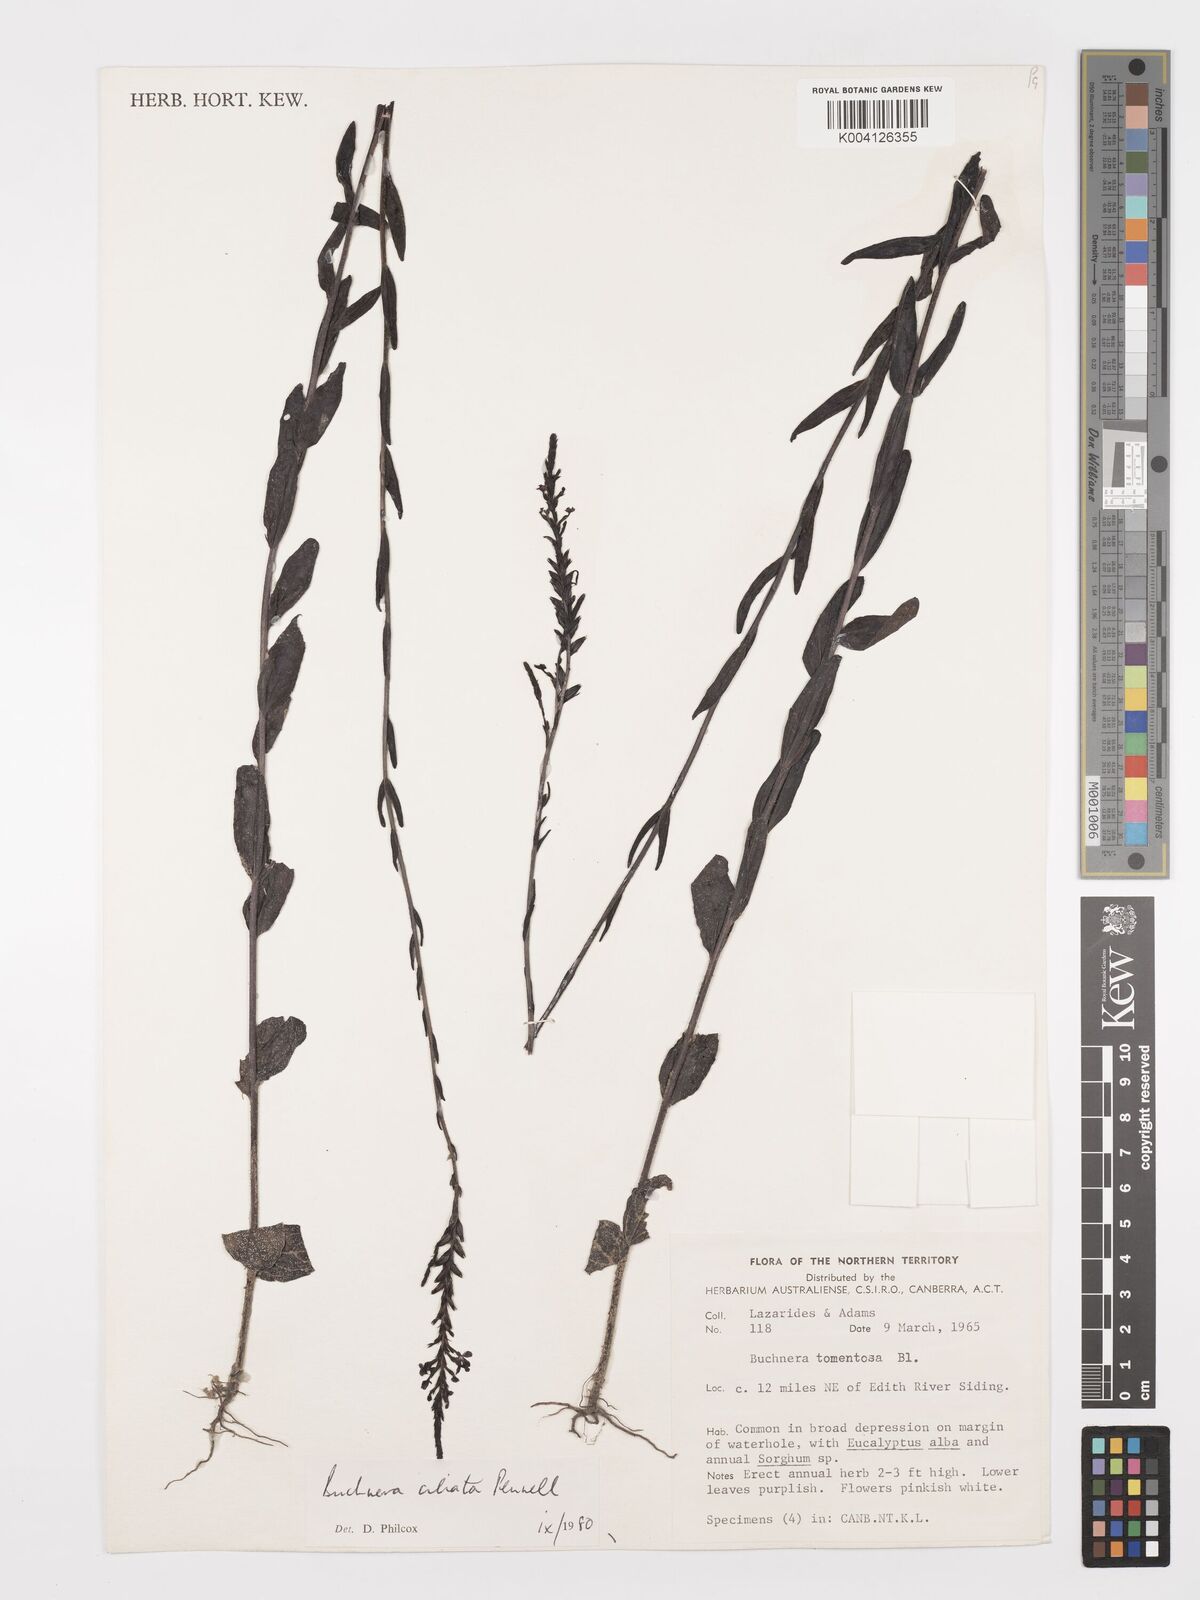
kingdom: Plantae
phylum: Tracheophyta
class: Magnoliopsida
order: Lamiales
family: Orobanchaceae
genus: Buchnera
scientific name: Buchnera ciliata
